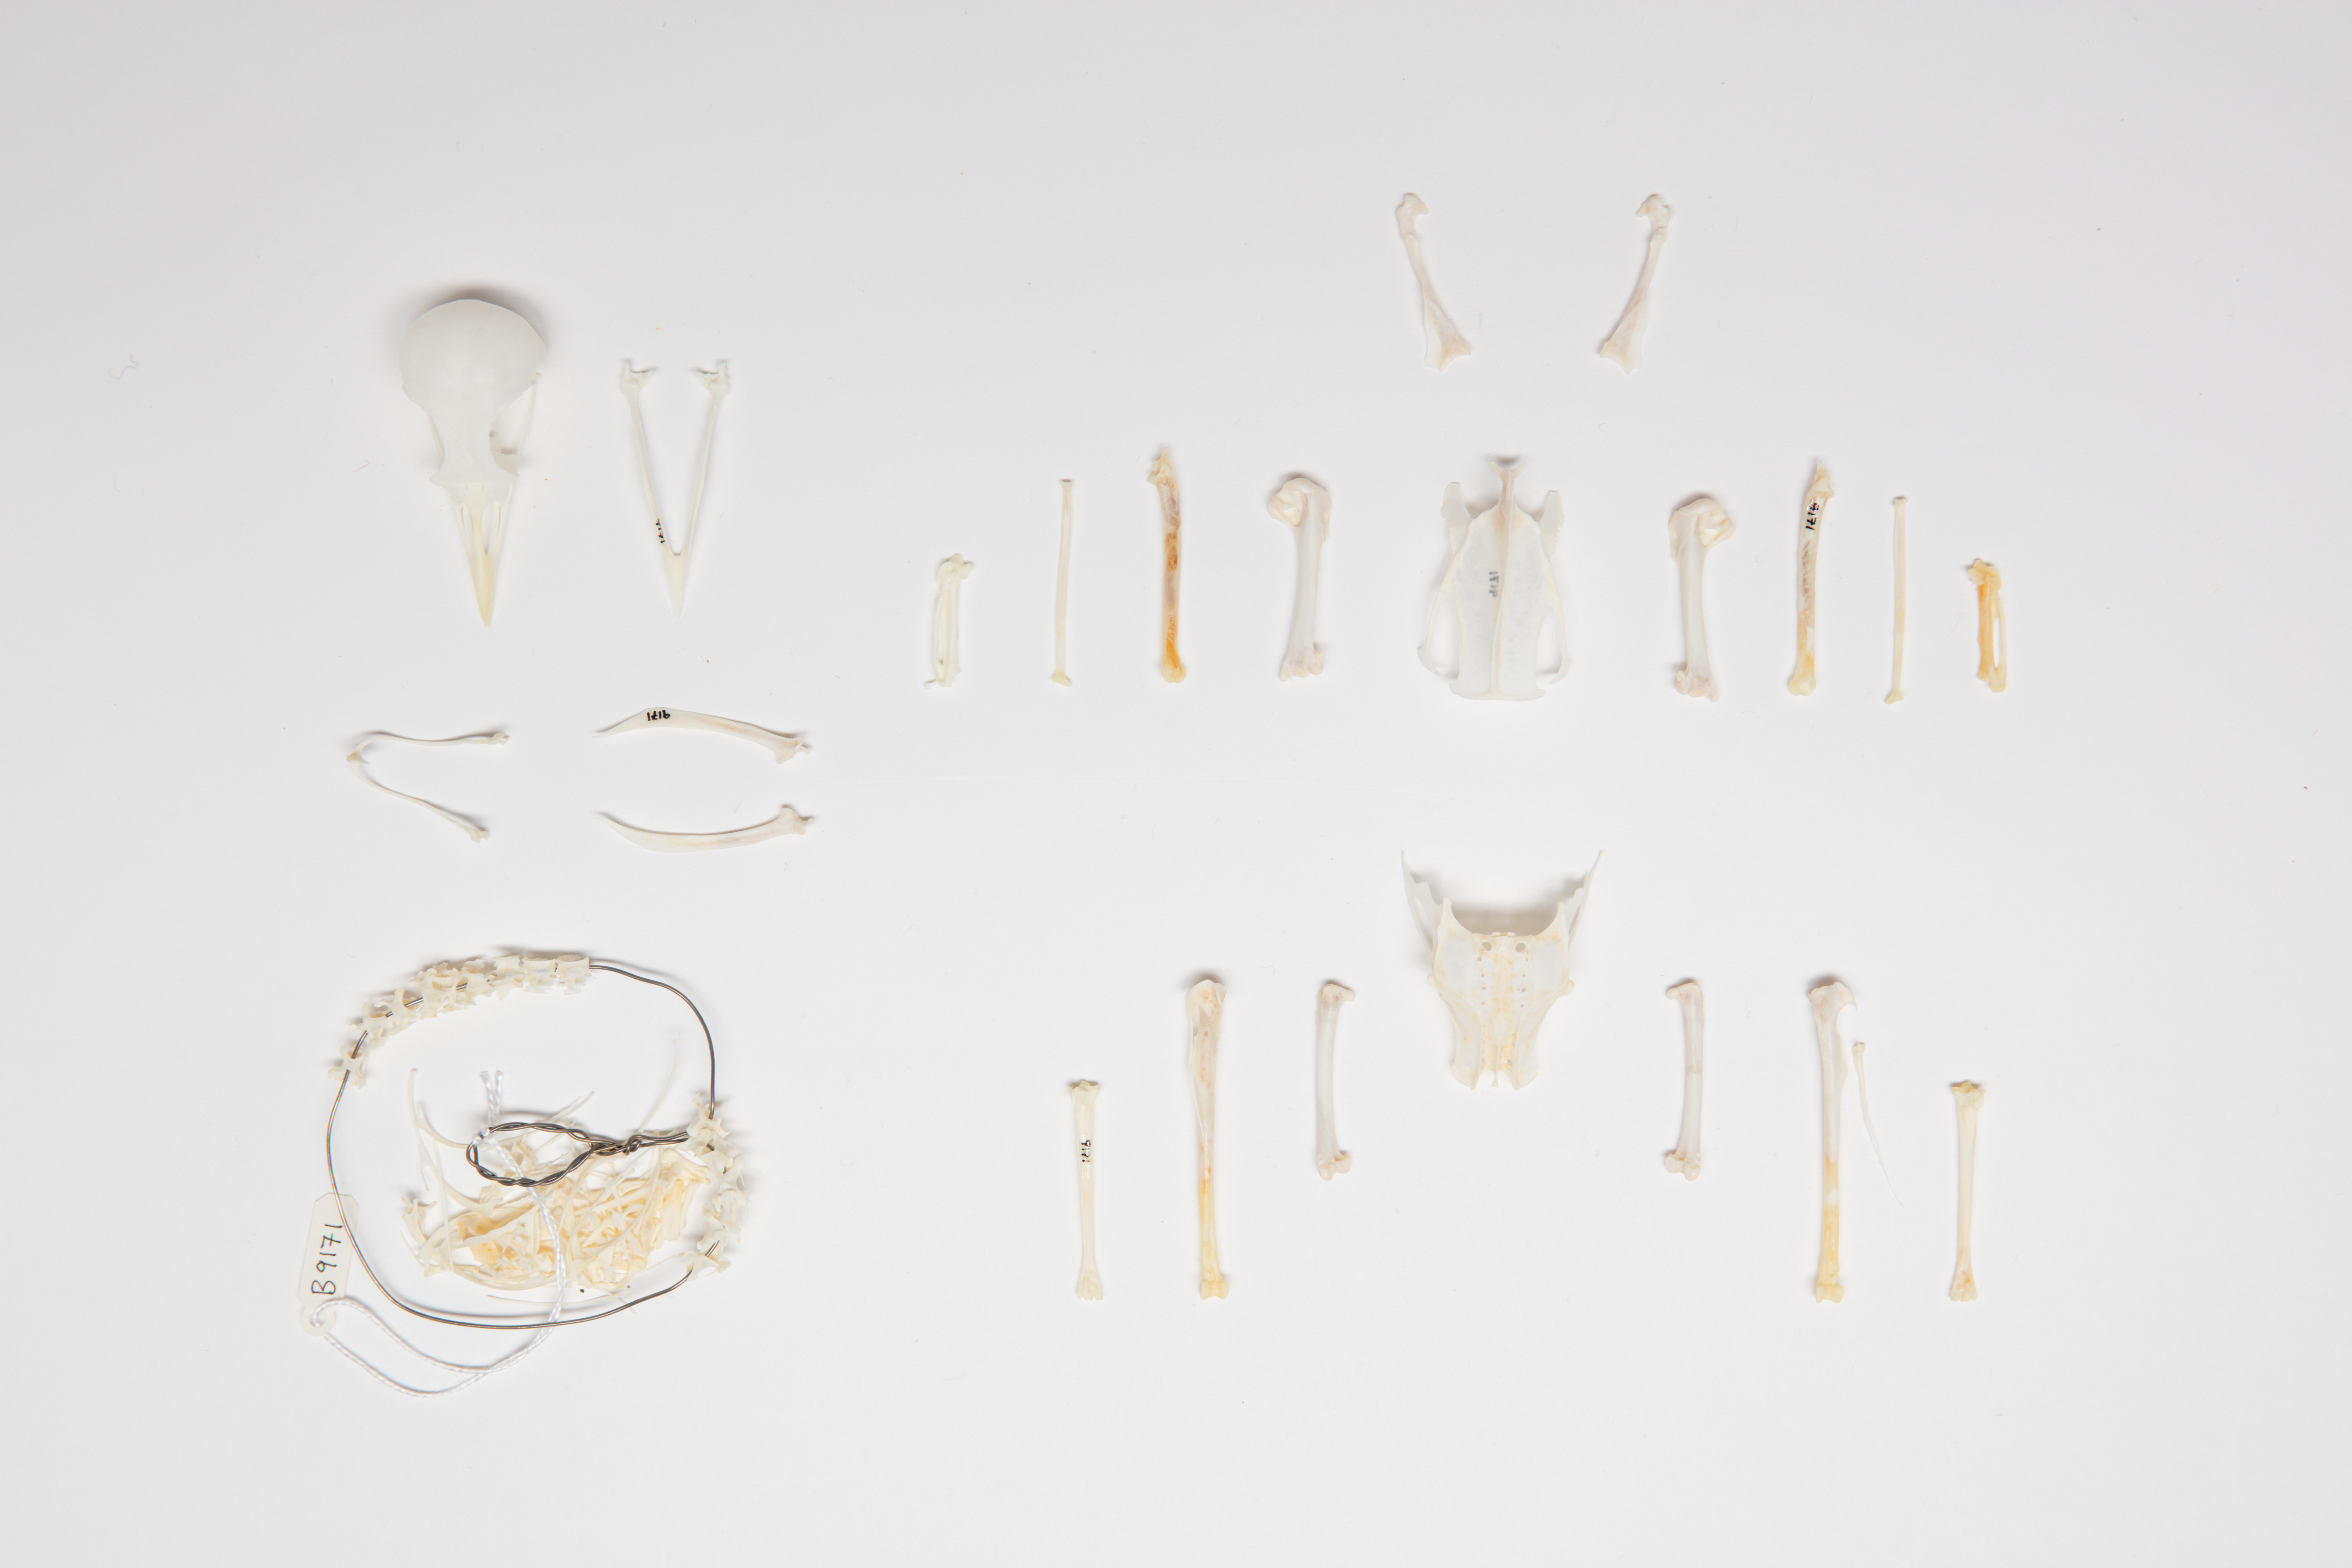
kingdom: Animalia
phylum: Chordata
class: Aves
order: Passeriformes
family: Turdidae
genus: Turdus
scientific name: Turdus merula
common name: Common blackbird
